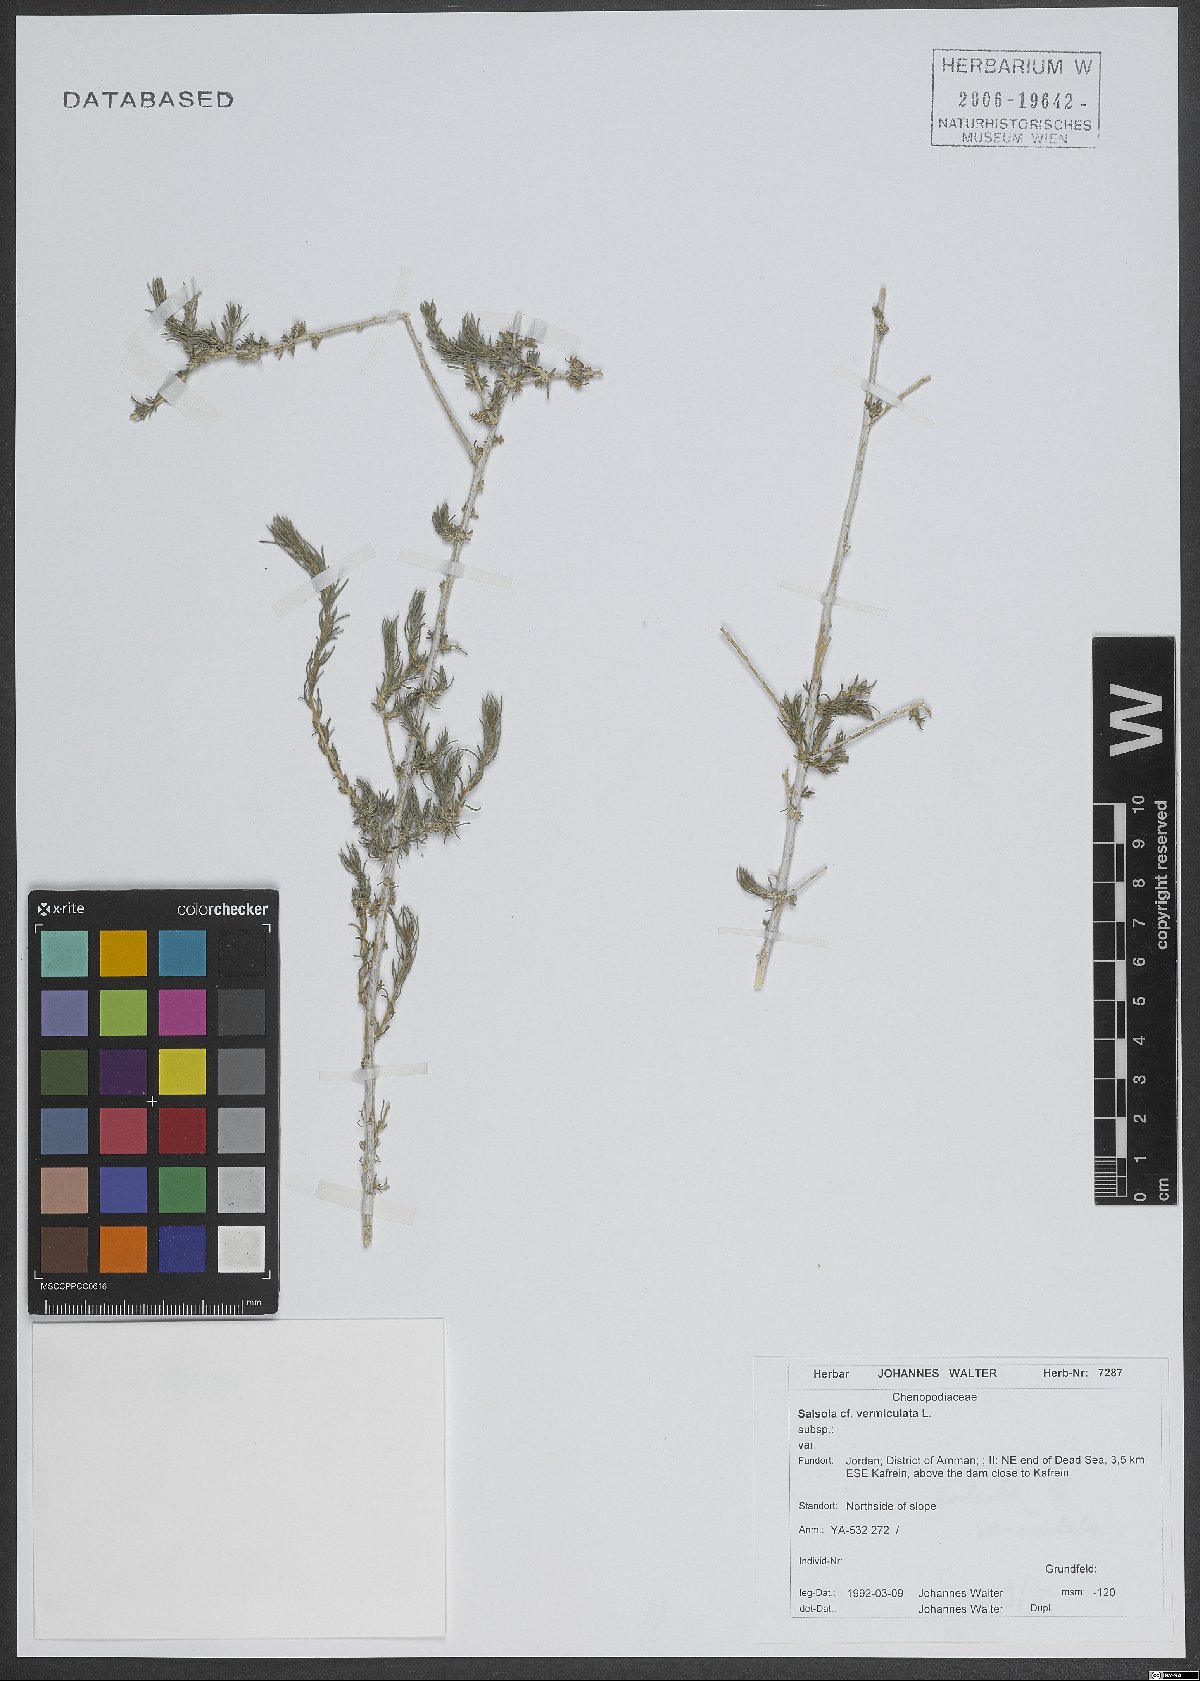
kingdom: Plantae
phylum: Tracheophyta
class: Magnoliopsida
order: Caryophyllales
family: Amaranthaceae
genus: Nitrosalsola
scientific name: Nitrosalsola vermiculata
